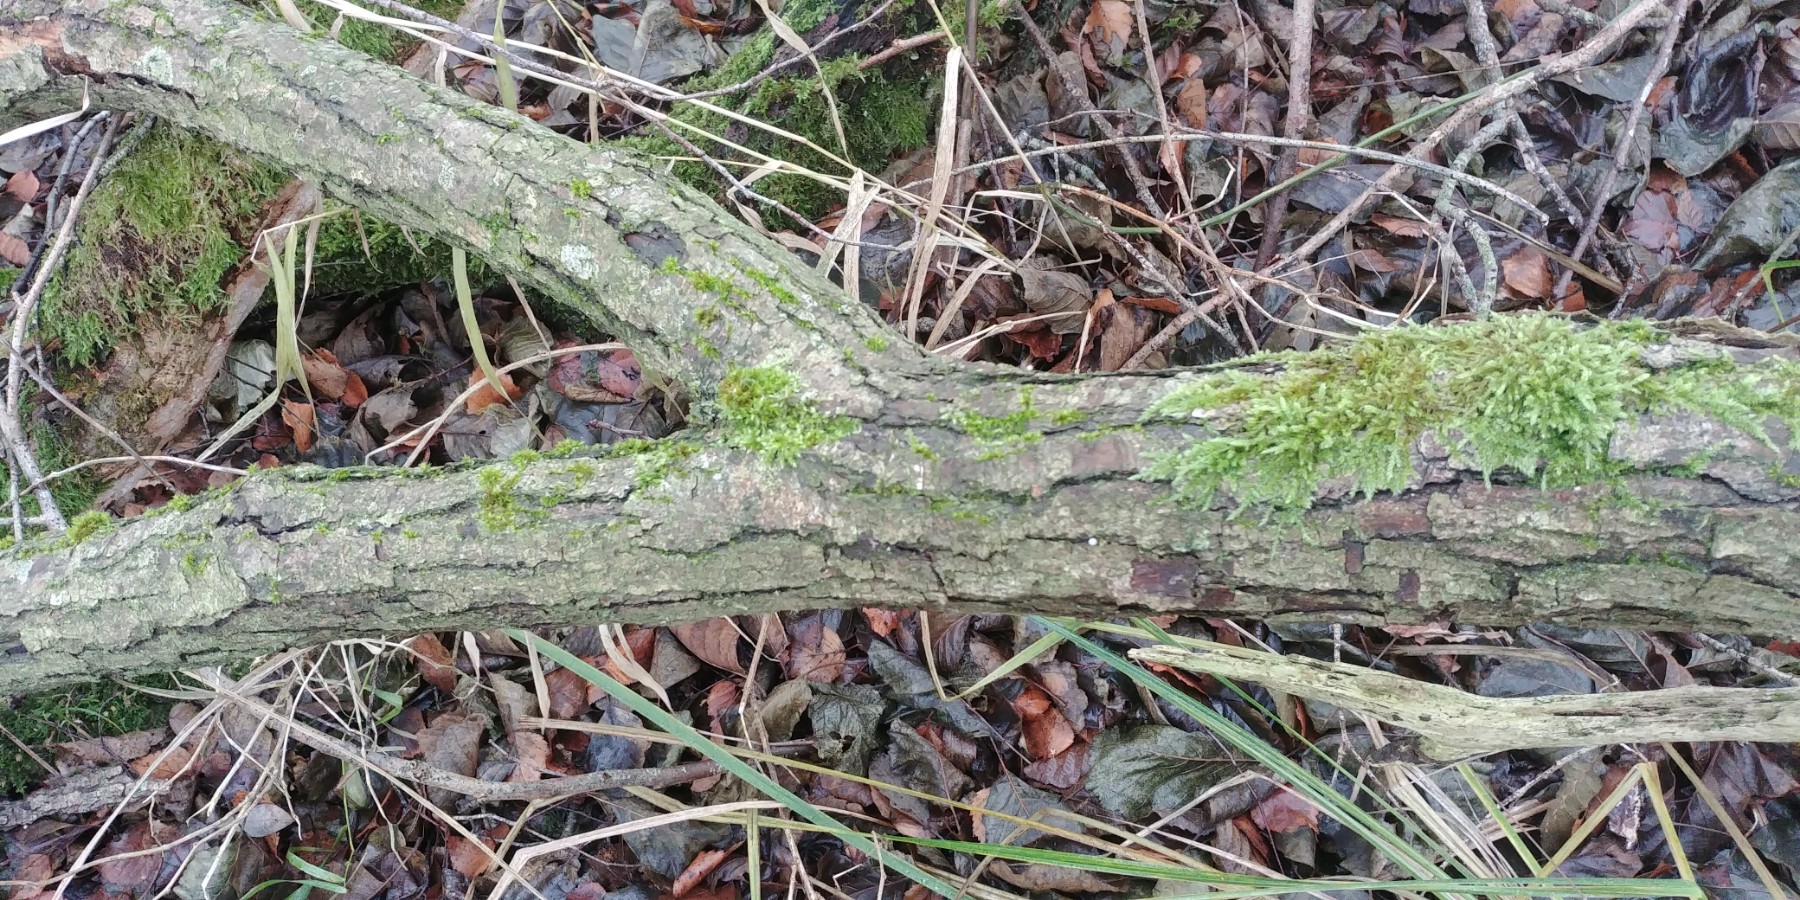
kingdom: Fungi
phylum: Basidiomycota
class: Agaricomycetes
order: Polyporales
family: Meruliaceae
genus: Phlebia
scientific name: Phlebia radiata
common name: stråle-åresvamp
